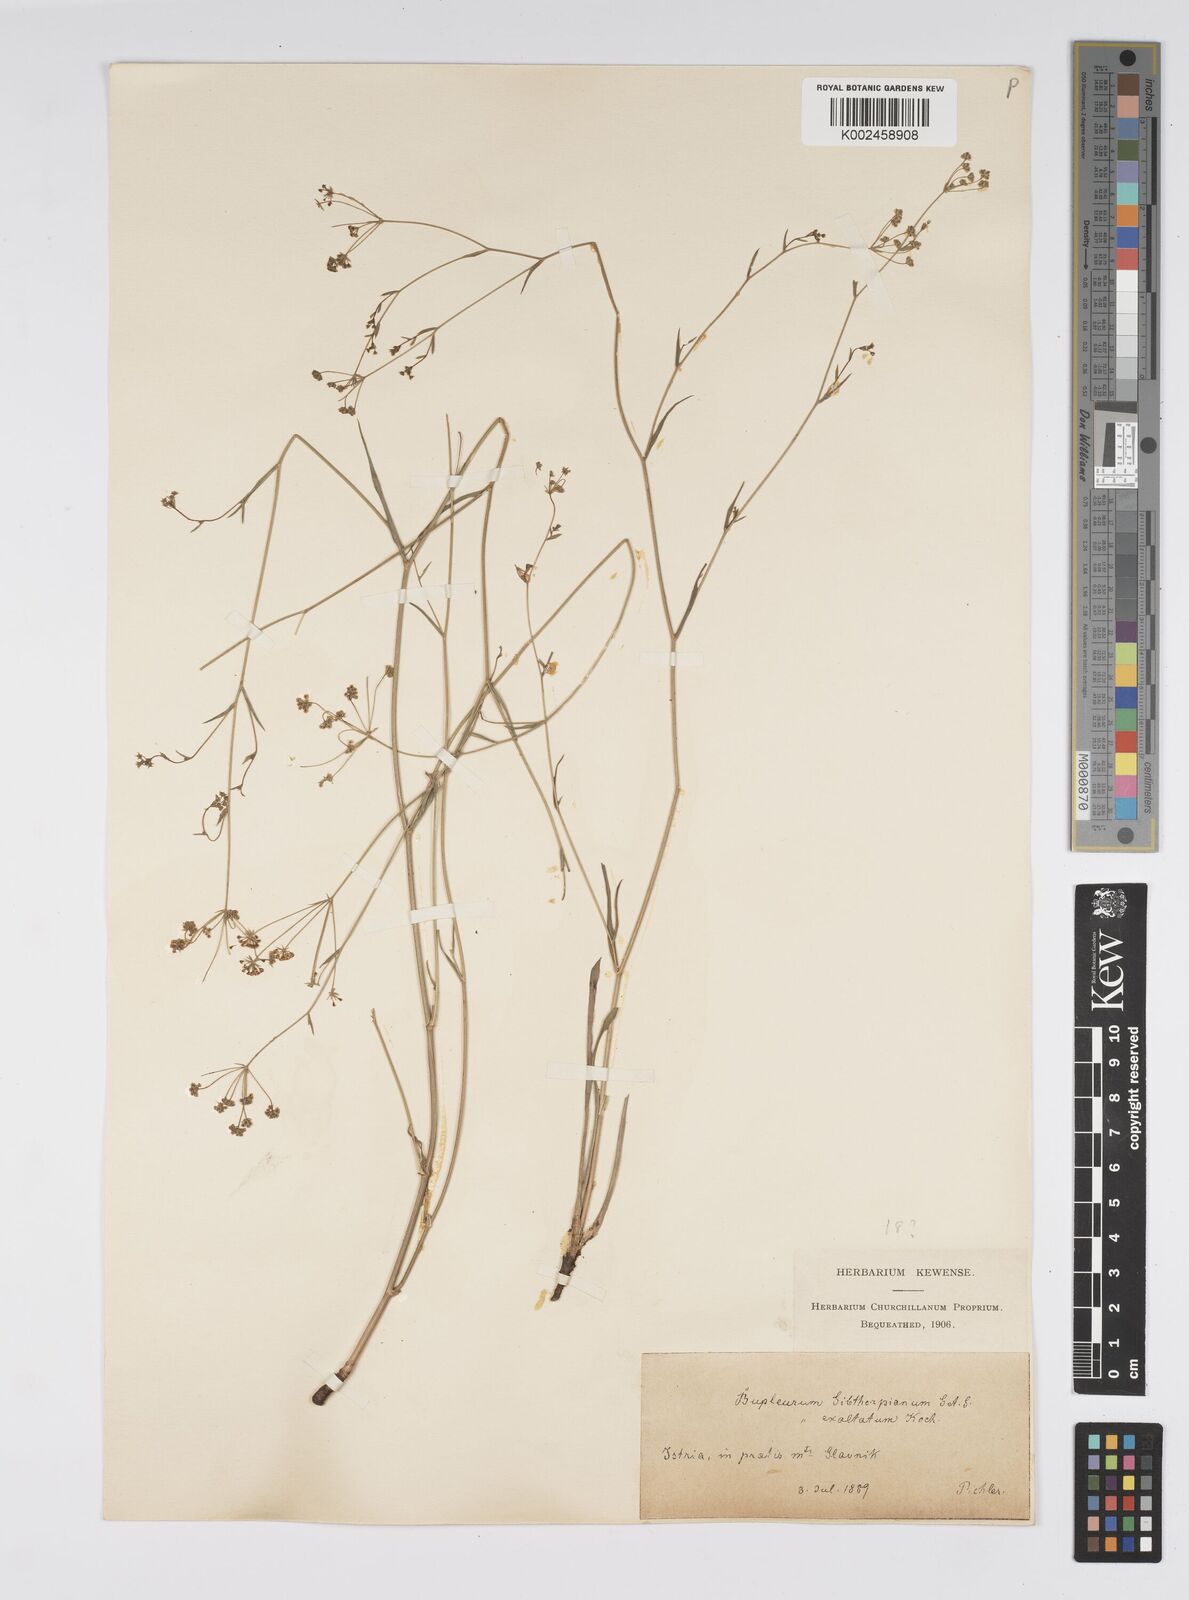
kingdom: Plantae
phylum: Tracheophyta
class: Magnoliopsida
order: Apiales
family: Apiaceae
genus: Bupleurum
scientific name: Bupleurum falcatum
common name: Sickle-leaved hare's-ear
